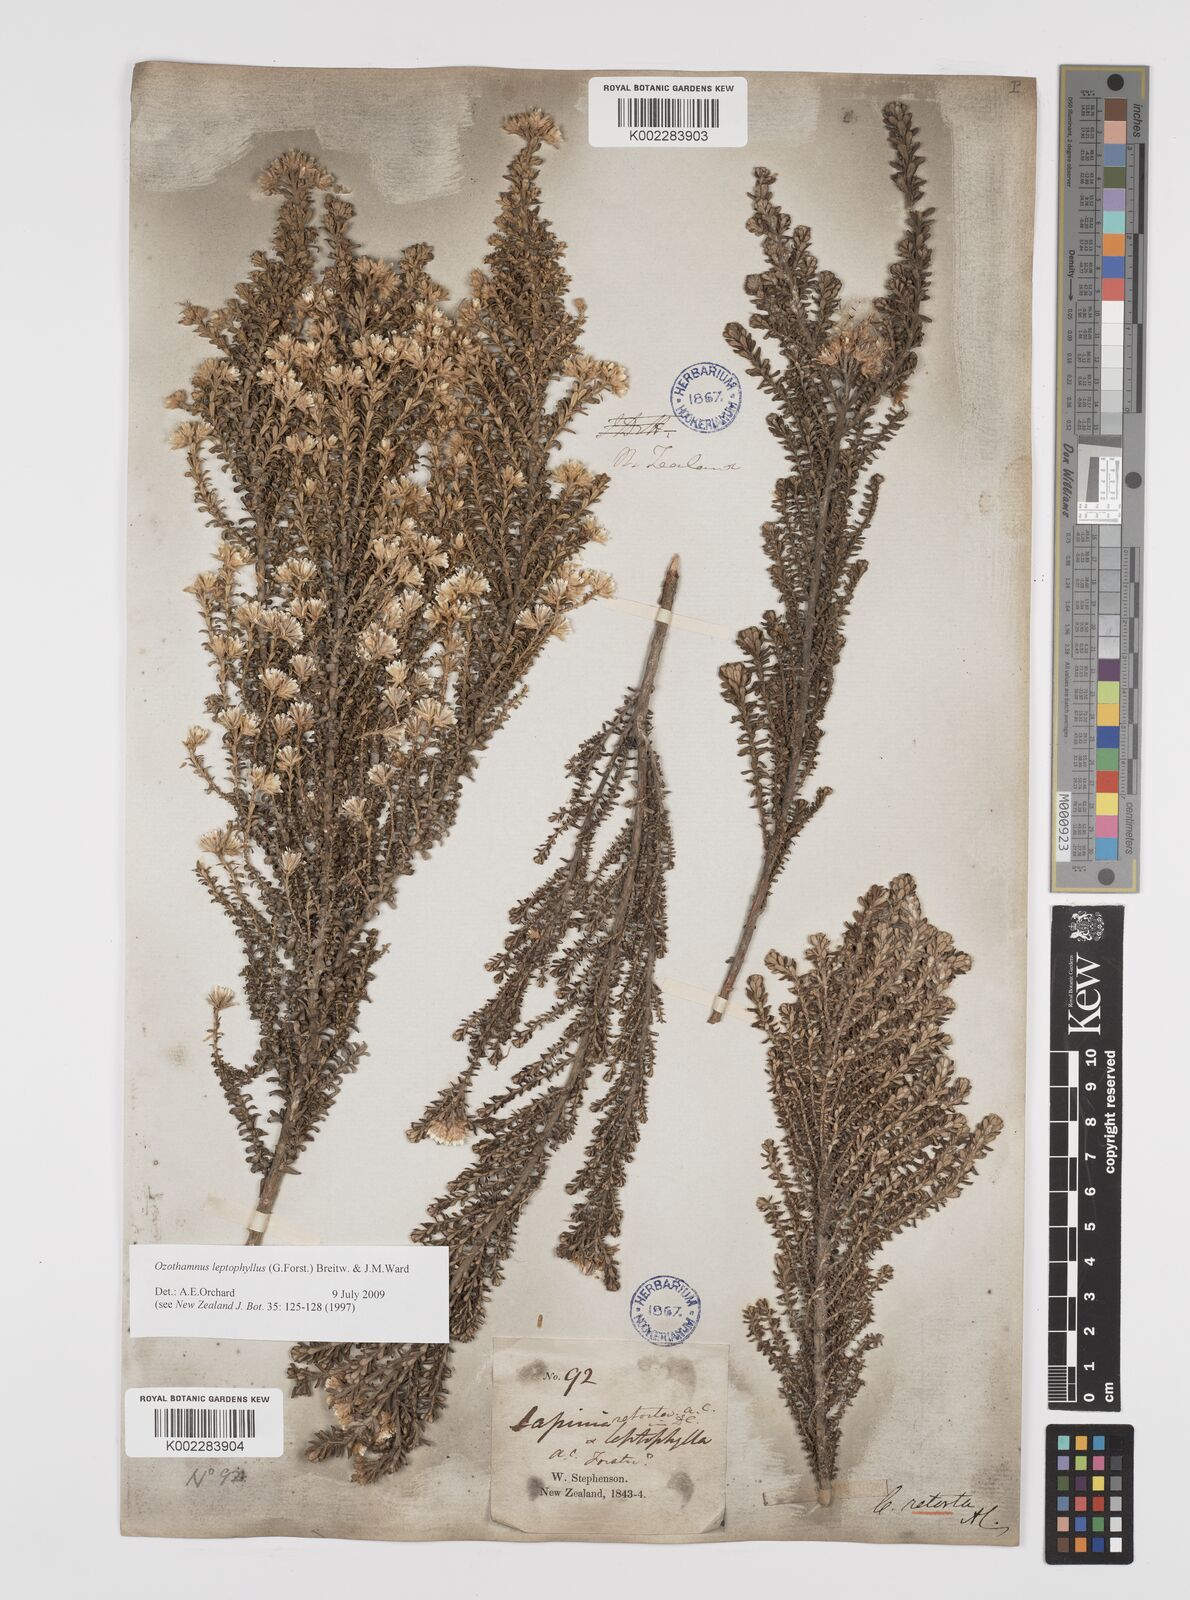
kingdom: Plantae
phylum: Tracheophyta
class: Magnoliopsida
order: Asterales
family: Asteraceae
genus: Cremnothamnus
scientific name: Cremnothamnus thomsonii
